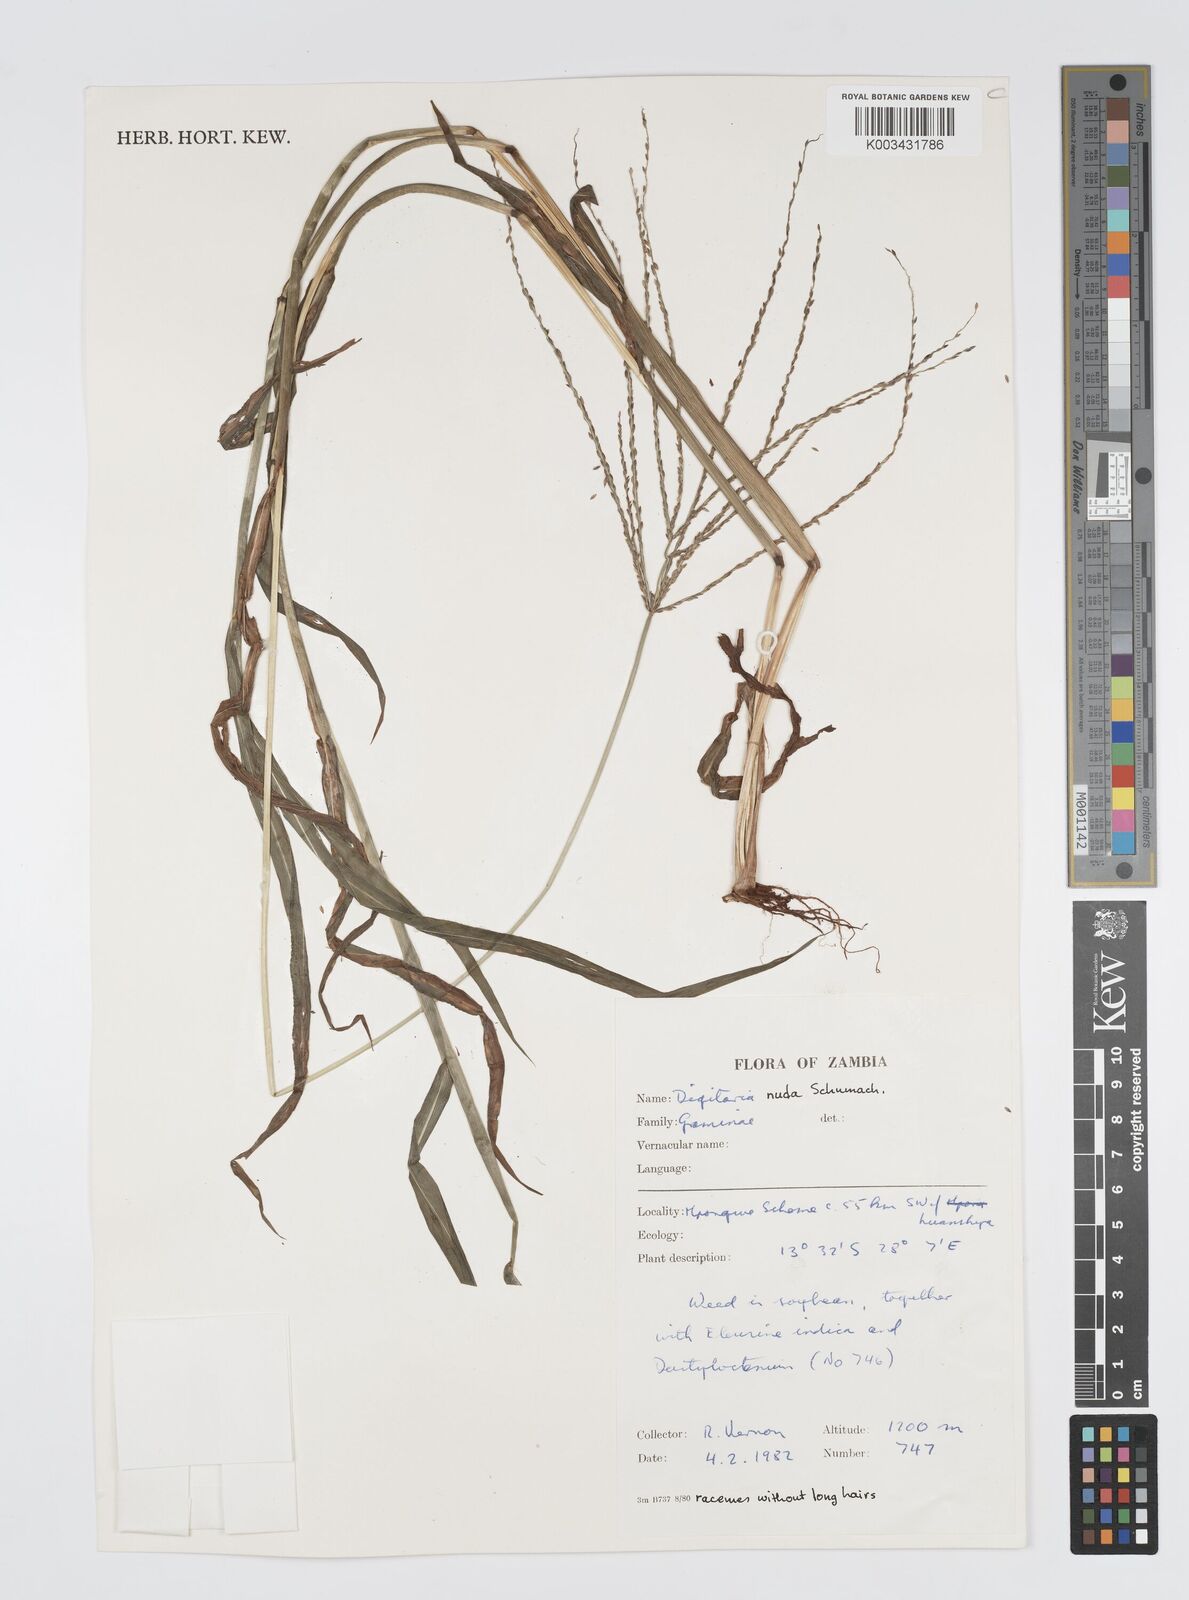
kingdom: Plantae
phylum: Tracheophyta
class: Liliopsida
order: Poales
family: Poaceae
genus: Digitaria
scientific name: Digitaria nuda
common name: Naked crabgrass
